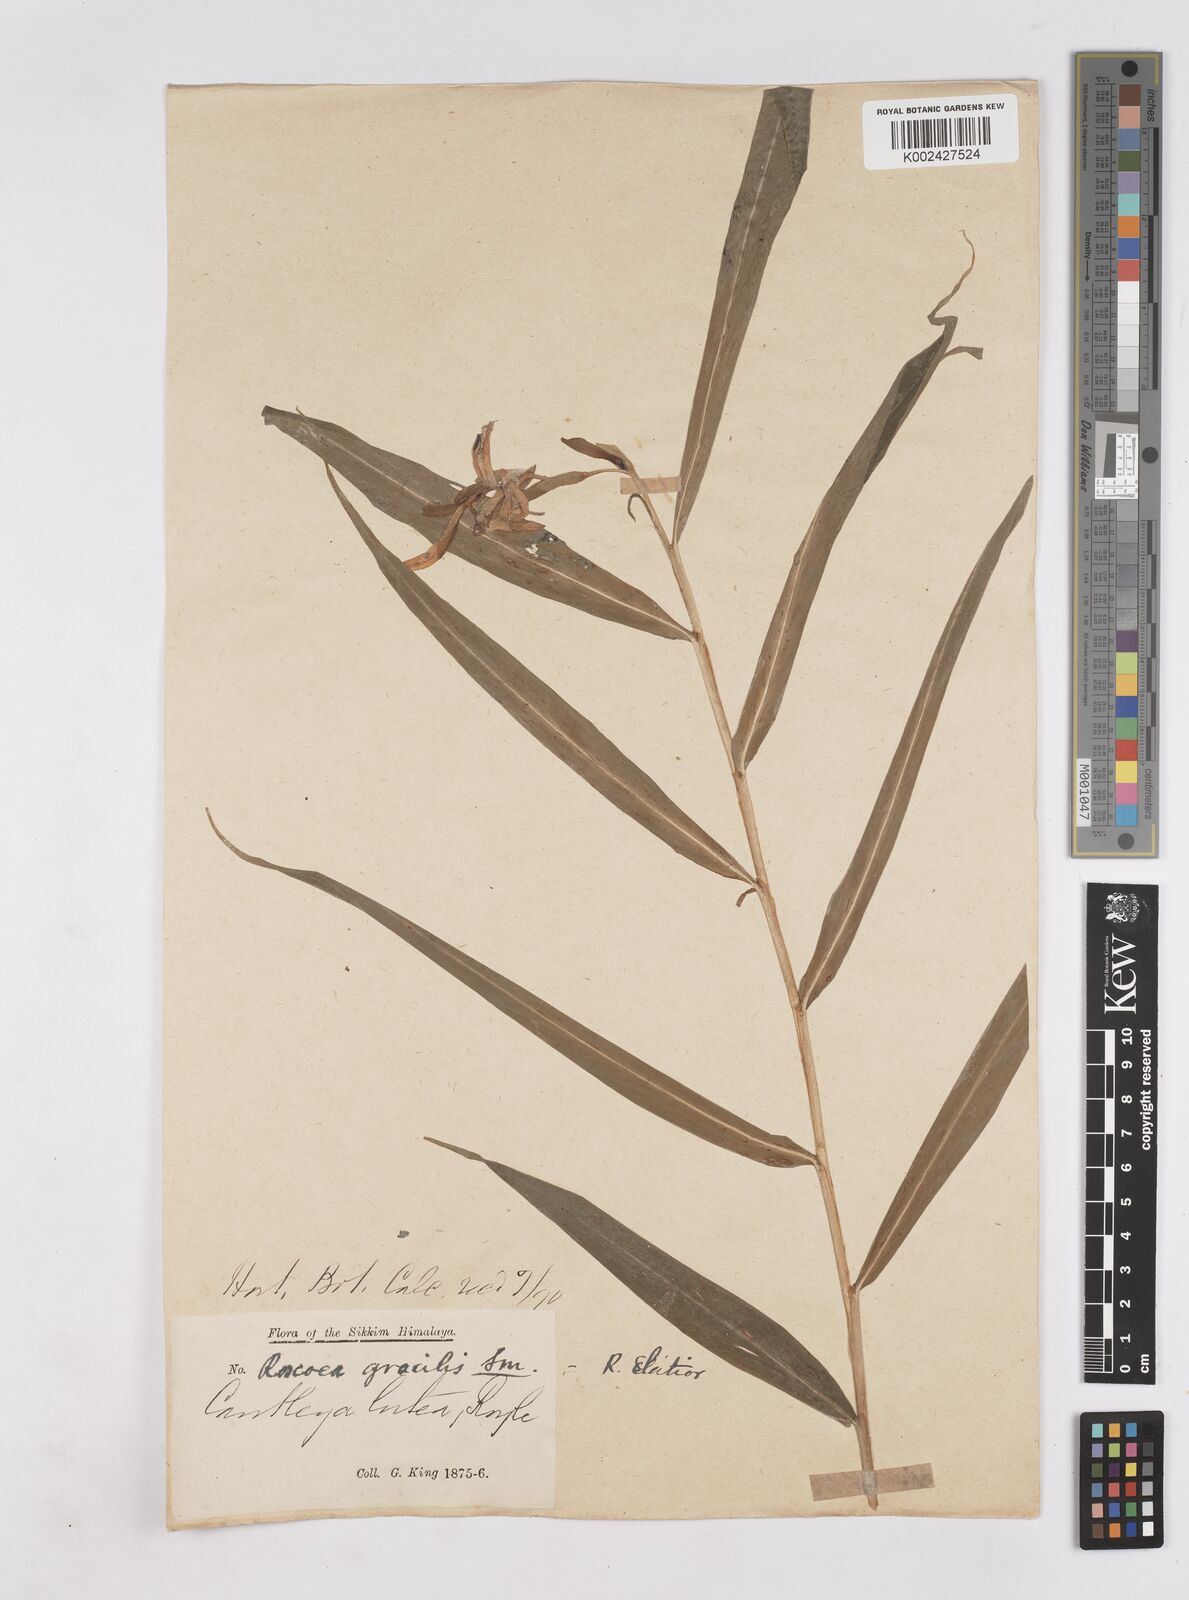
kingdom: Plantae
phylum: Tracheophyta
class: Liliopsida
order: Zingiberales
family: Zingiberaceae
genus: Cautleya
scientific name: Cautleya gracilis
